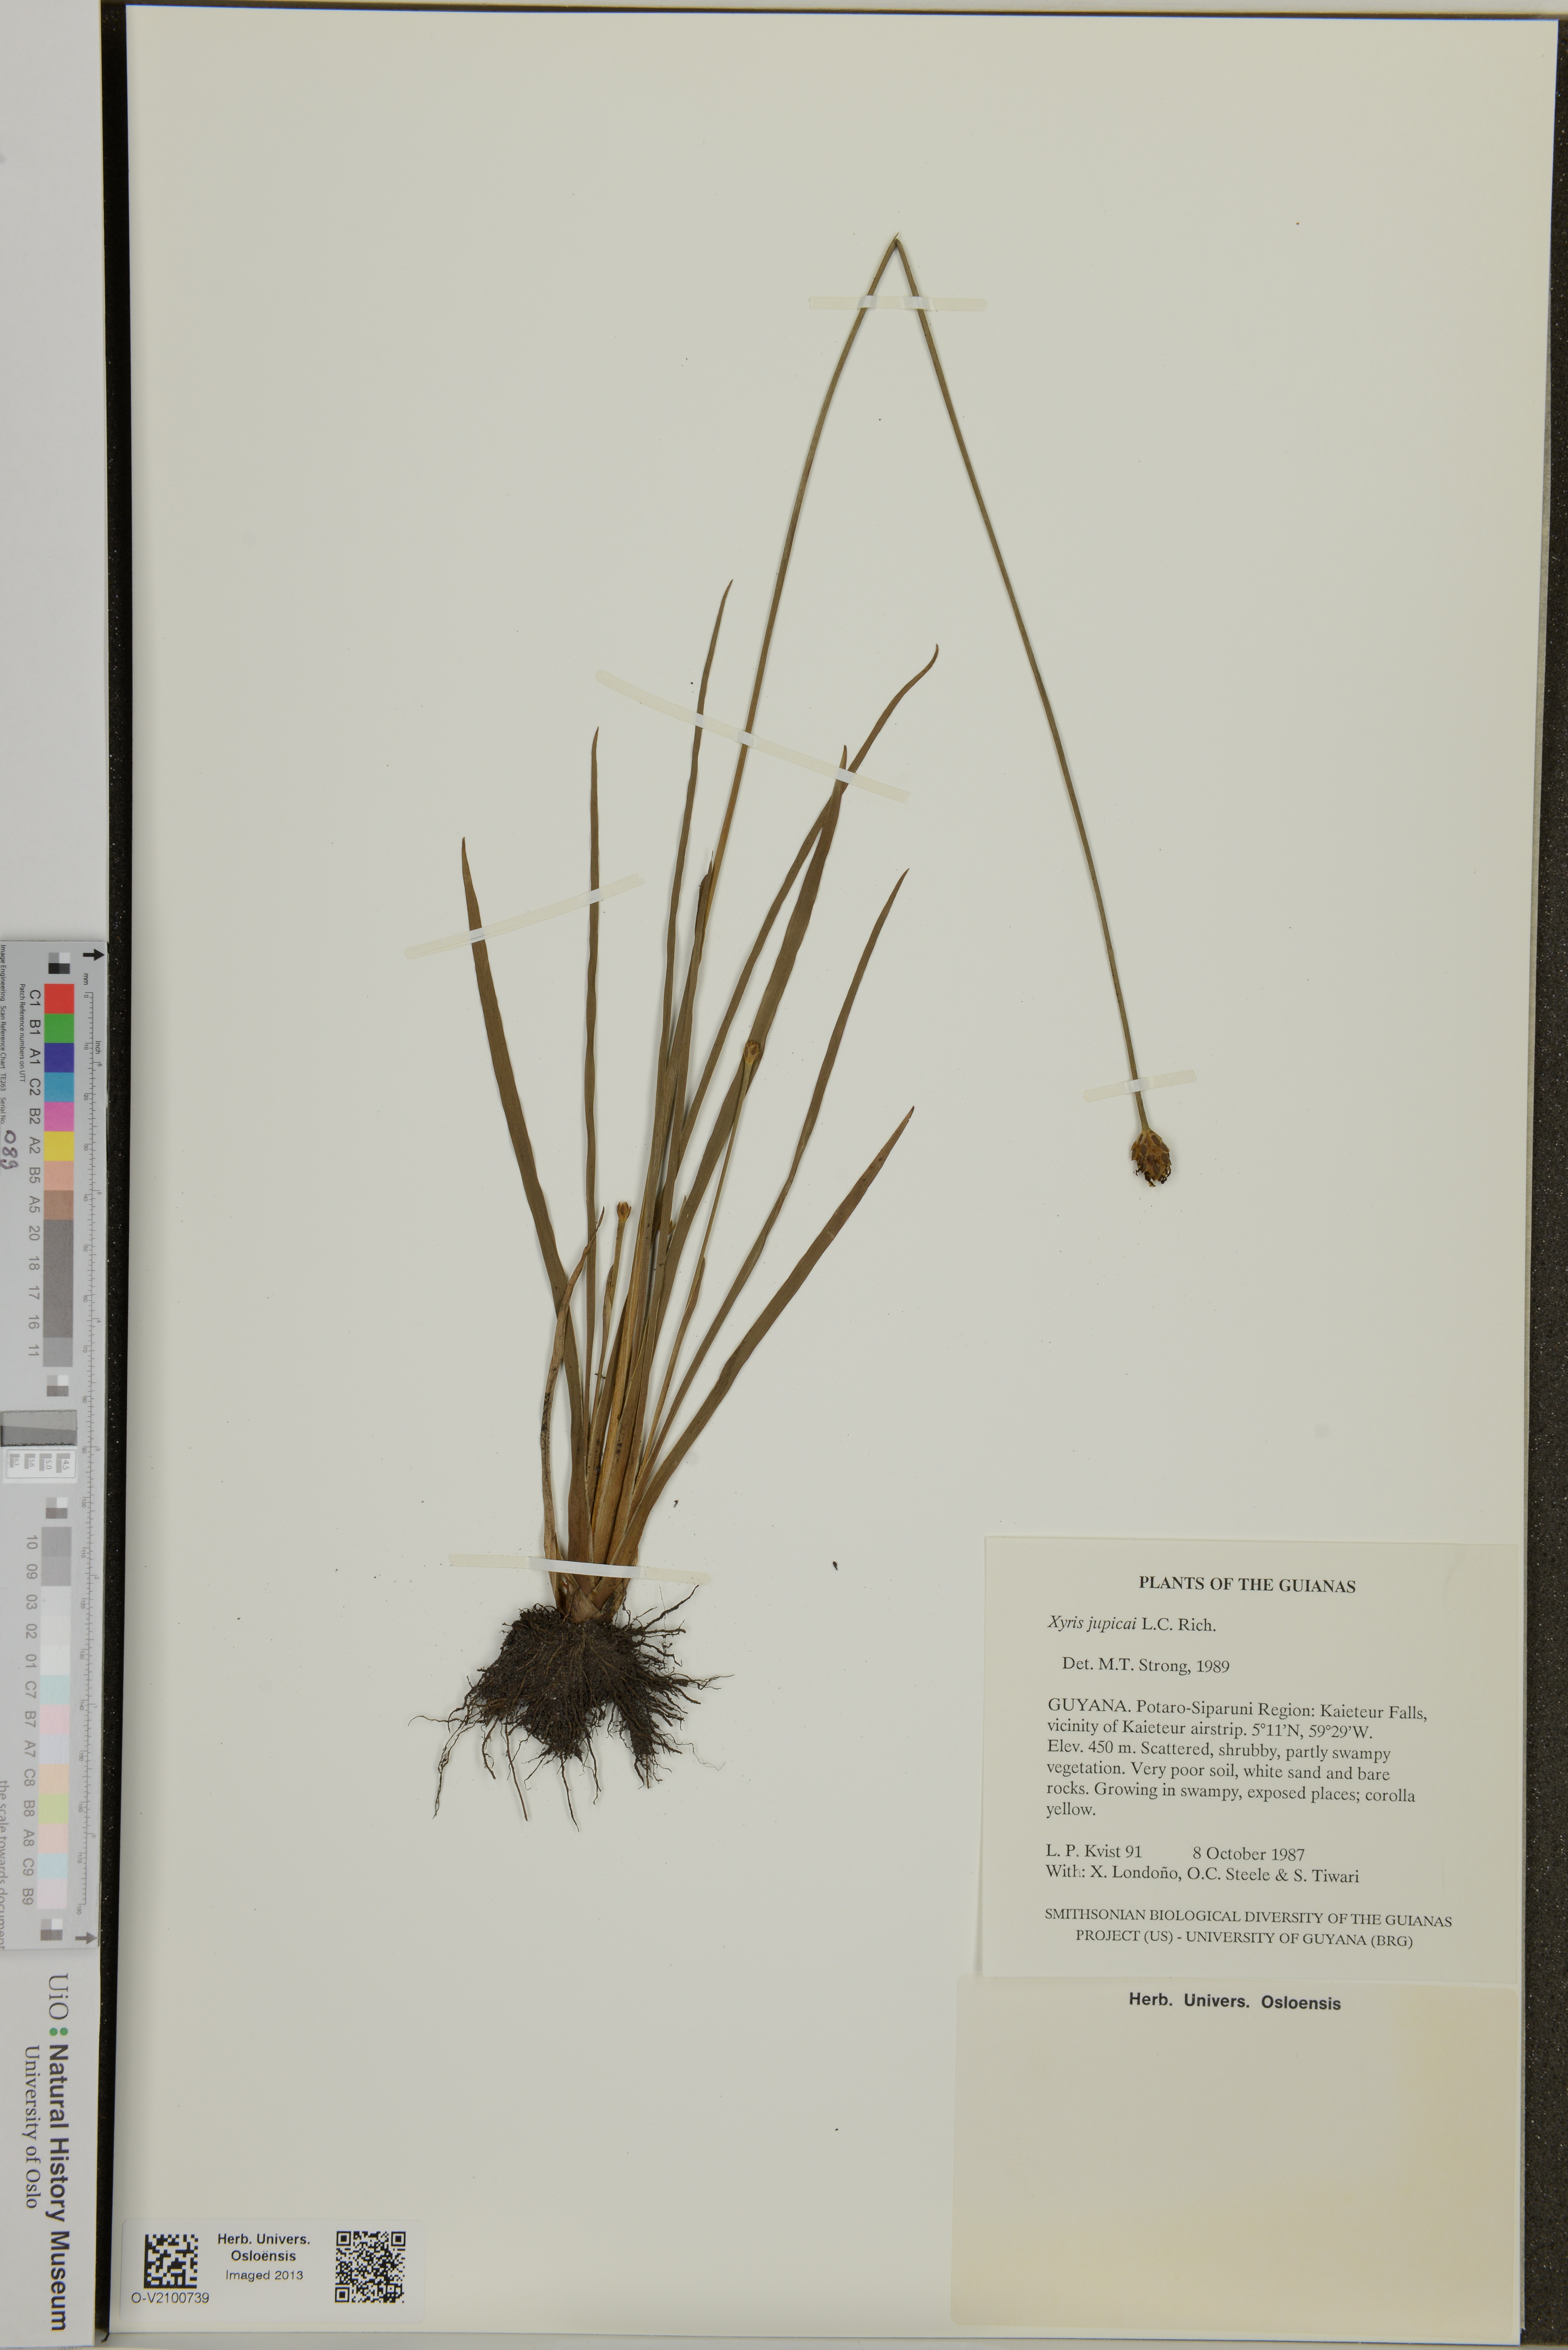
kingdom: Plantae
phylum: Tracheophyta
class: Liliopsida
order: Poales
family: Xyridaceae
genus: Xyris
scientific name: Xyris jupicai
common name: Richard's yelloweyed grass
